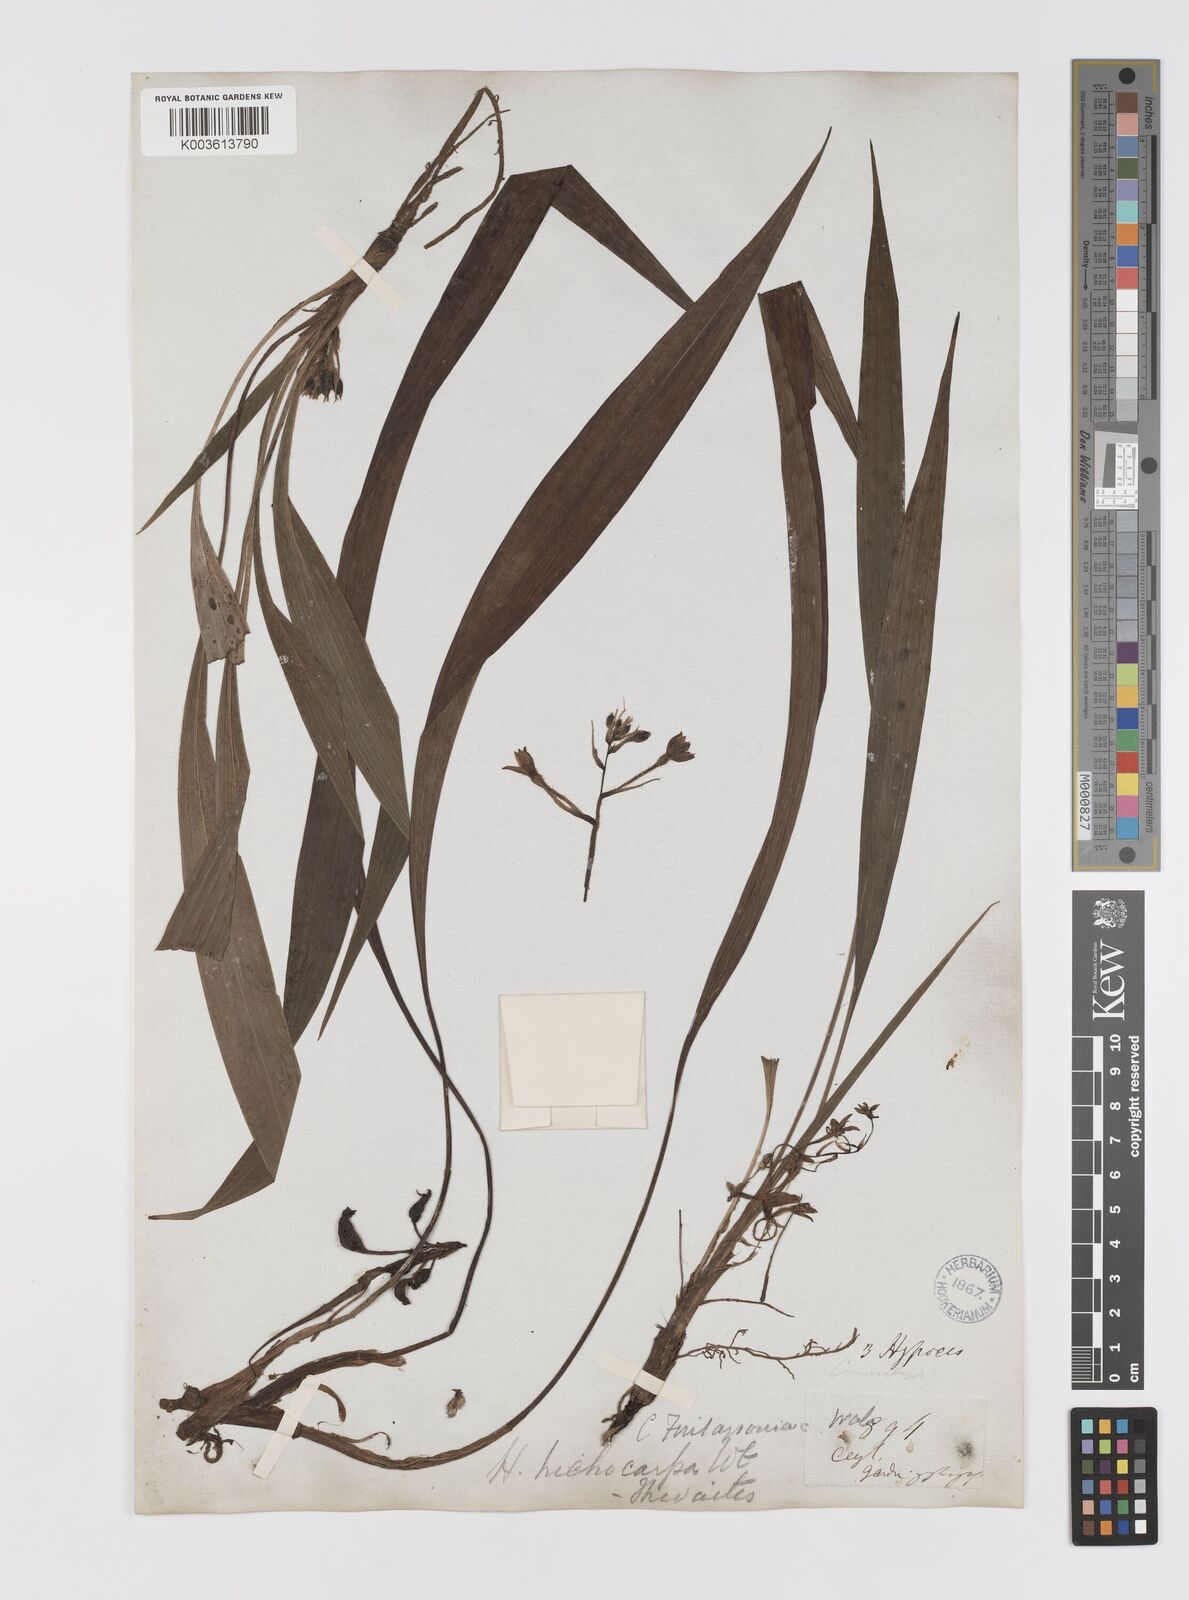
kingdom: Plantae
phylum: Tracheophyta
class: Liliopsida
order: Asparagales
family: Hypoxidaceae
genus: Curculigo
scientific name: Curculigo trichocarpa
